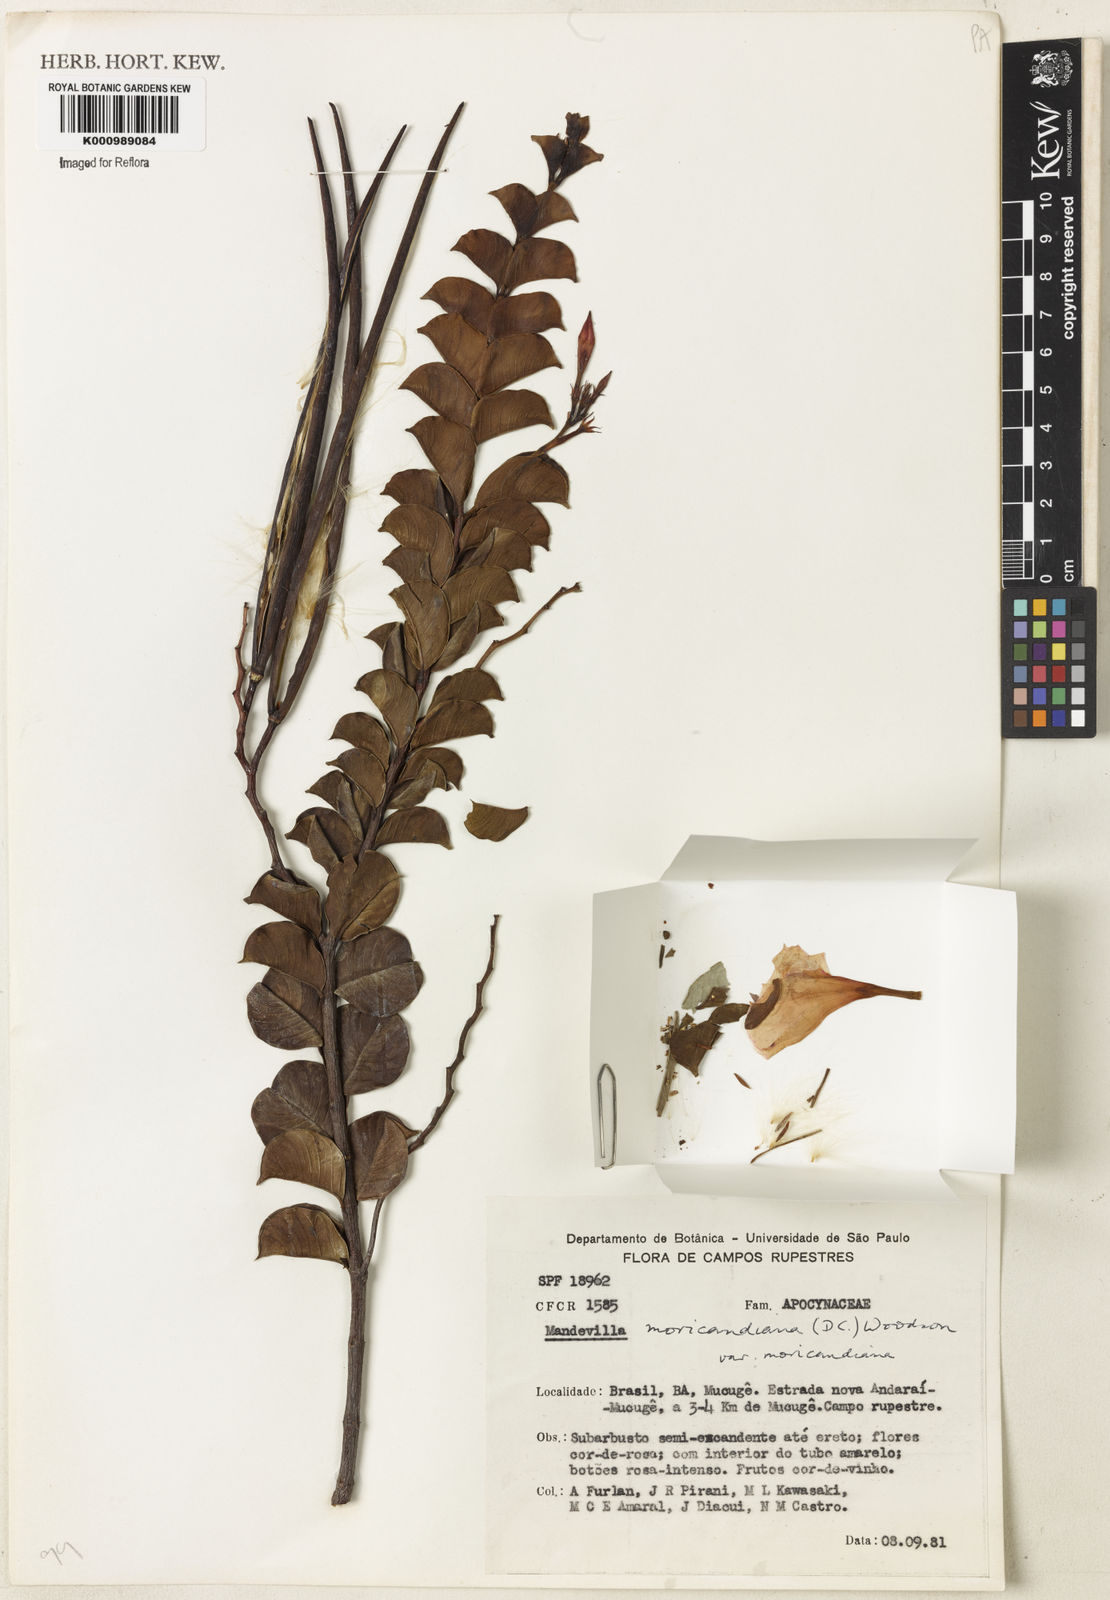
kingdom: Plantae
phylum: Tracheophyta
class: Magnoliopsida
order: Gentianales
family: Apocynaceae
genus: Mandevilla
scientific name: Mandevilla bahiensis
